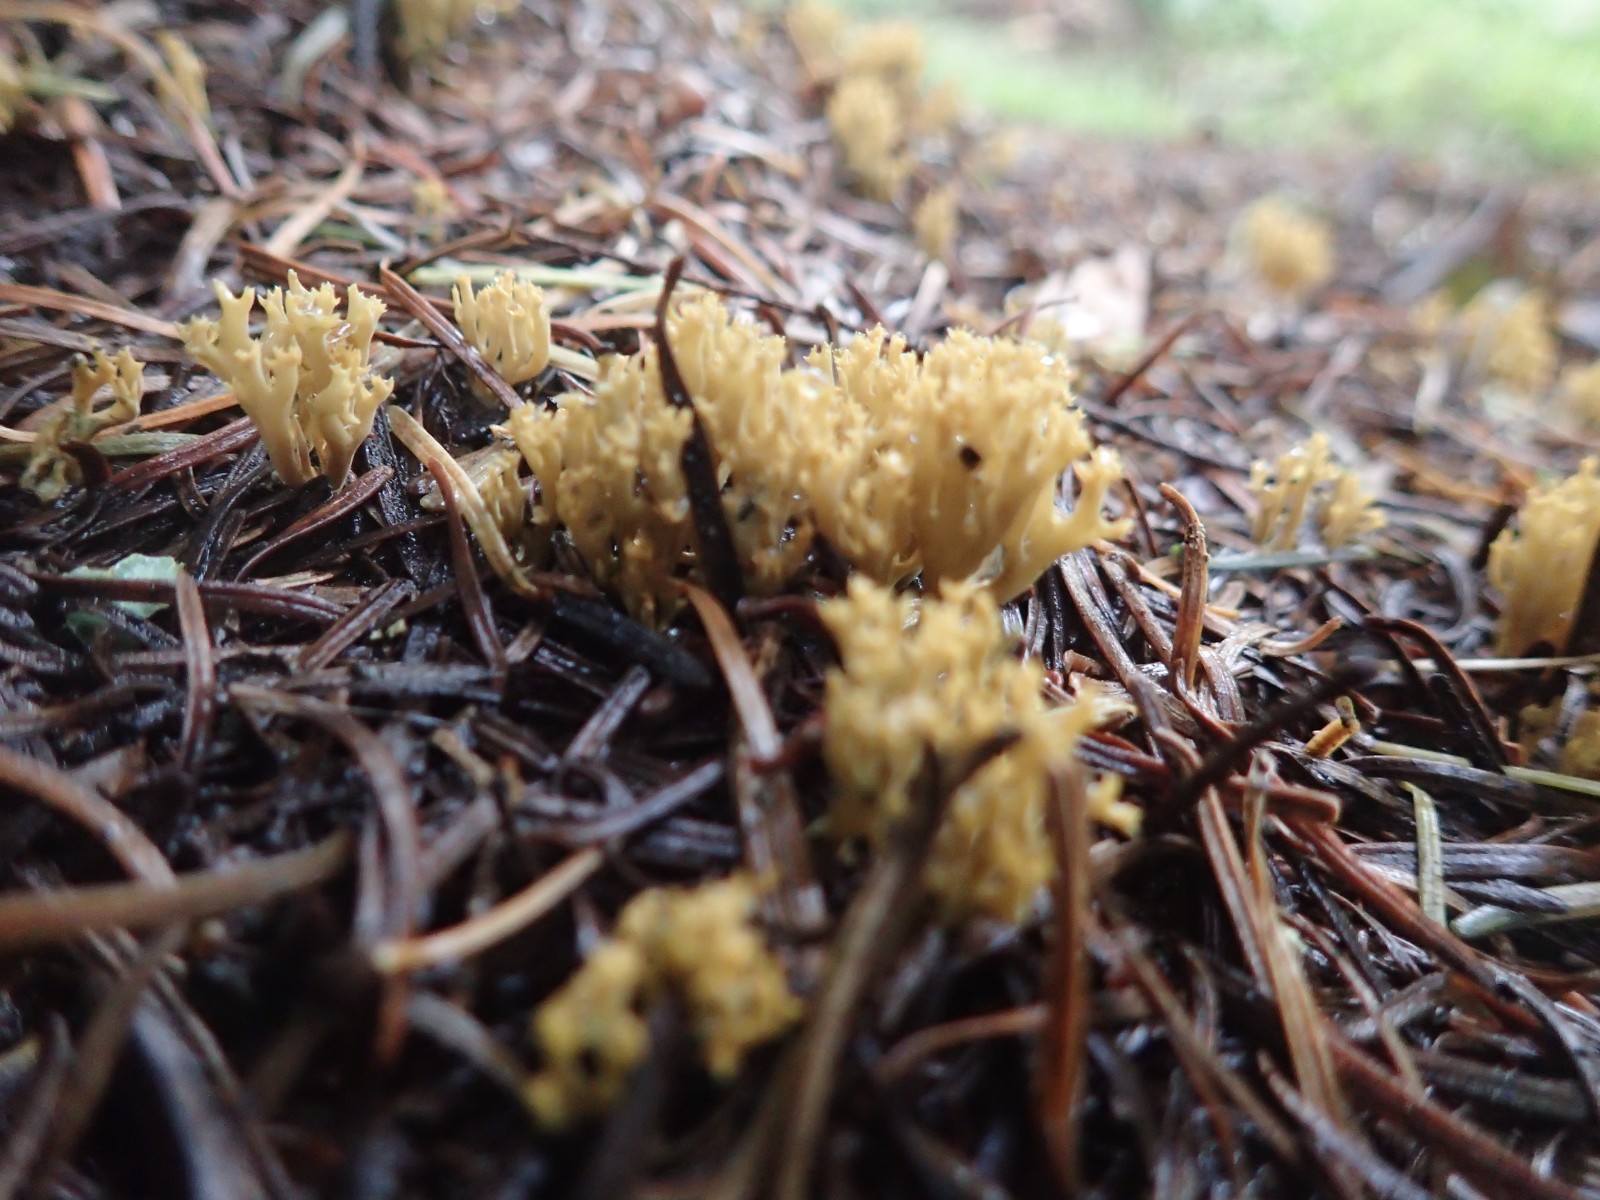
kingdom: Fungi
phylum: Basidiomycota
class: Agaricomycetes
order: Gomphales
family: Gomphaceae
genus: Phaeoclavulina
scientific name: Phaeoclavulina eumorpha
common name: gran-koralsvamp
